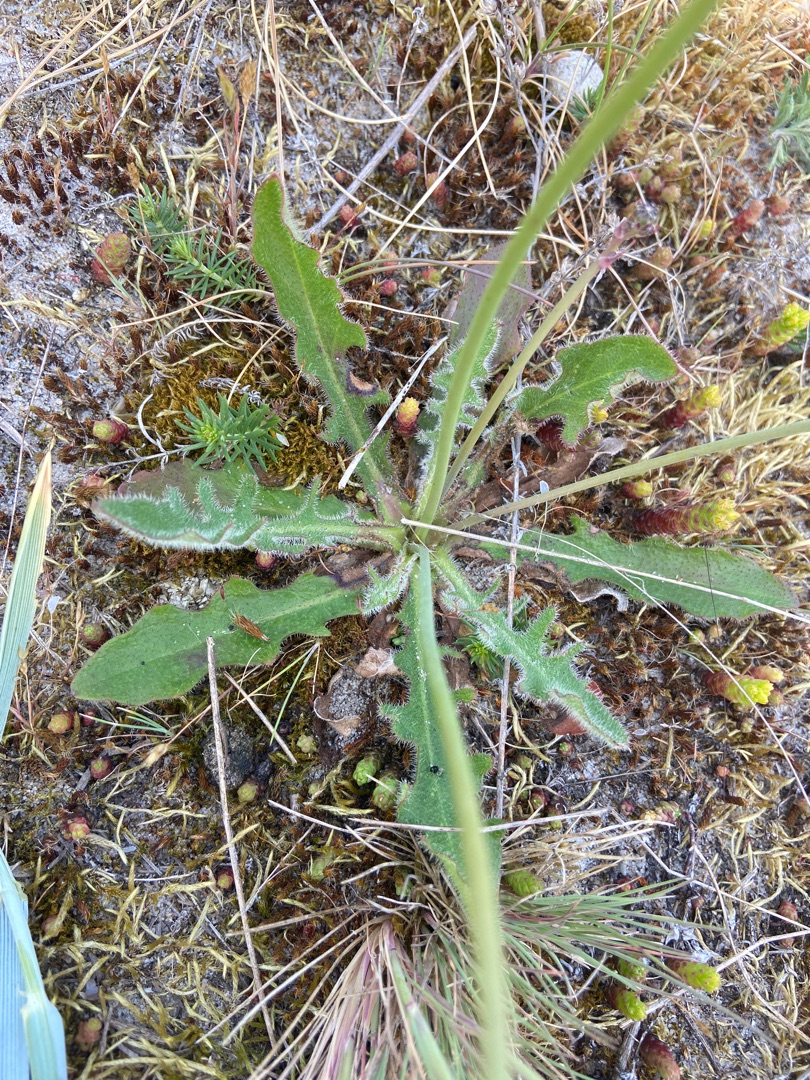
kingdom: Plantae
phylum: Tracheophyta
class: Magnoliopsida
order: Asterales
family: Asteraceae
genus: Hypochaeris
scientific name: Hypochaeris radicata
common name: Almindelig kongepen
